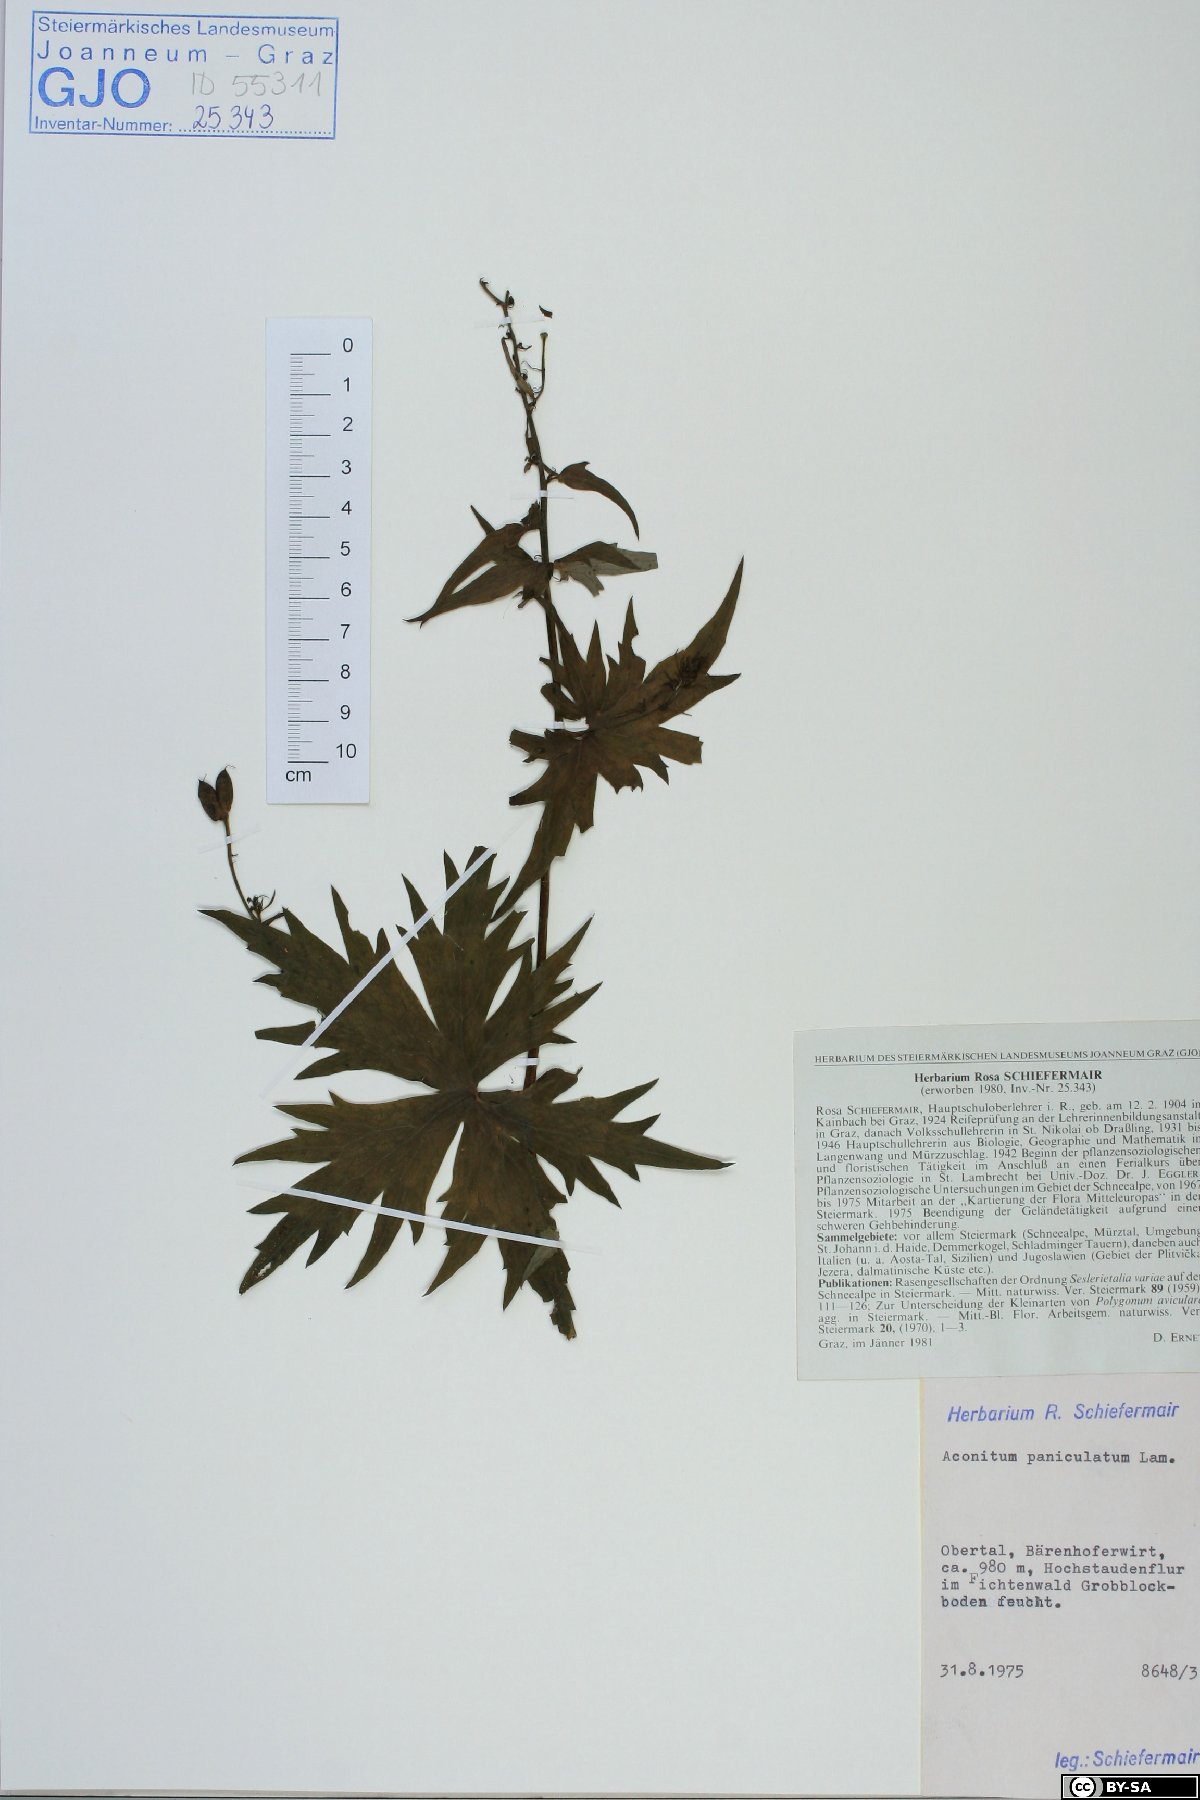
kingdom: Plantae
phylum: Tracheophyta
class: Magnoliopsida
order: Ranunculales
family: Ranunculaceae
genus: Aconitum
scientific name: Aconitum degenii
